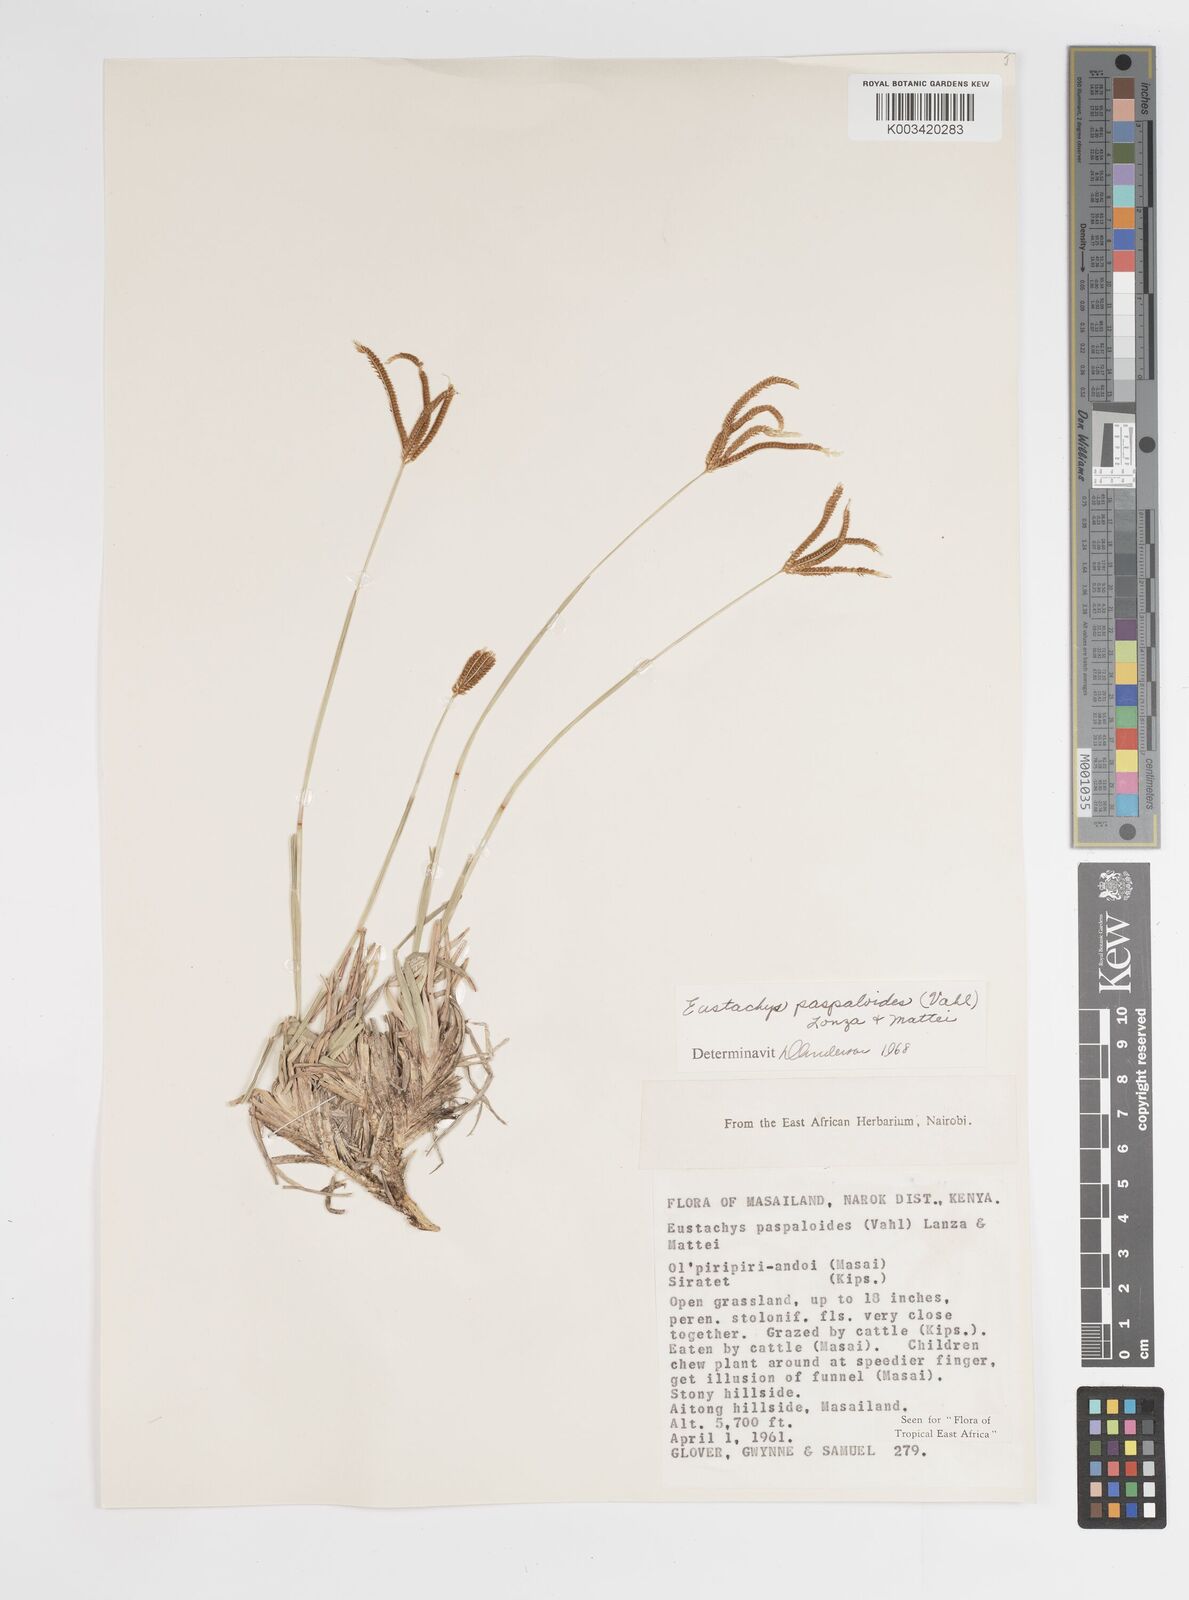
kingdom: Plantae
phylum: Tracheophyta
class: Liliopsida
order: Poales
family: Poaceae
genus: Eustachys
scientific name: Eustachys paspaloides
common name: Caribbean fingergrass
